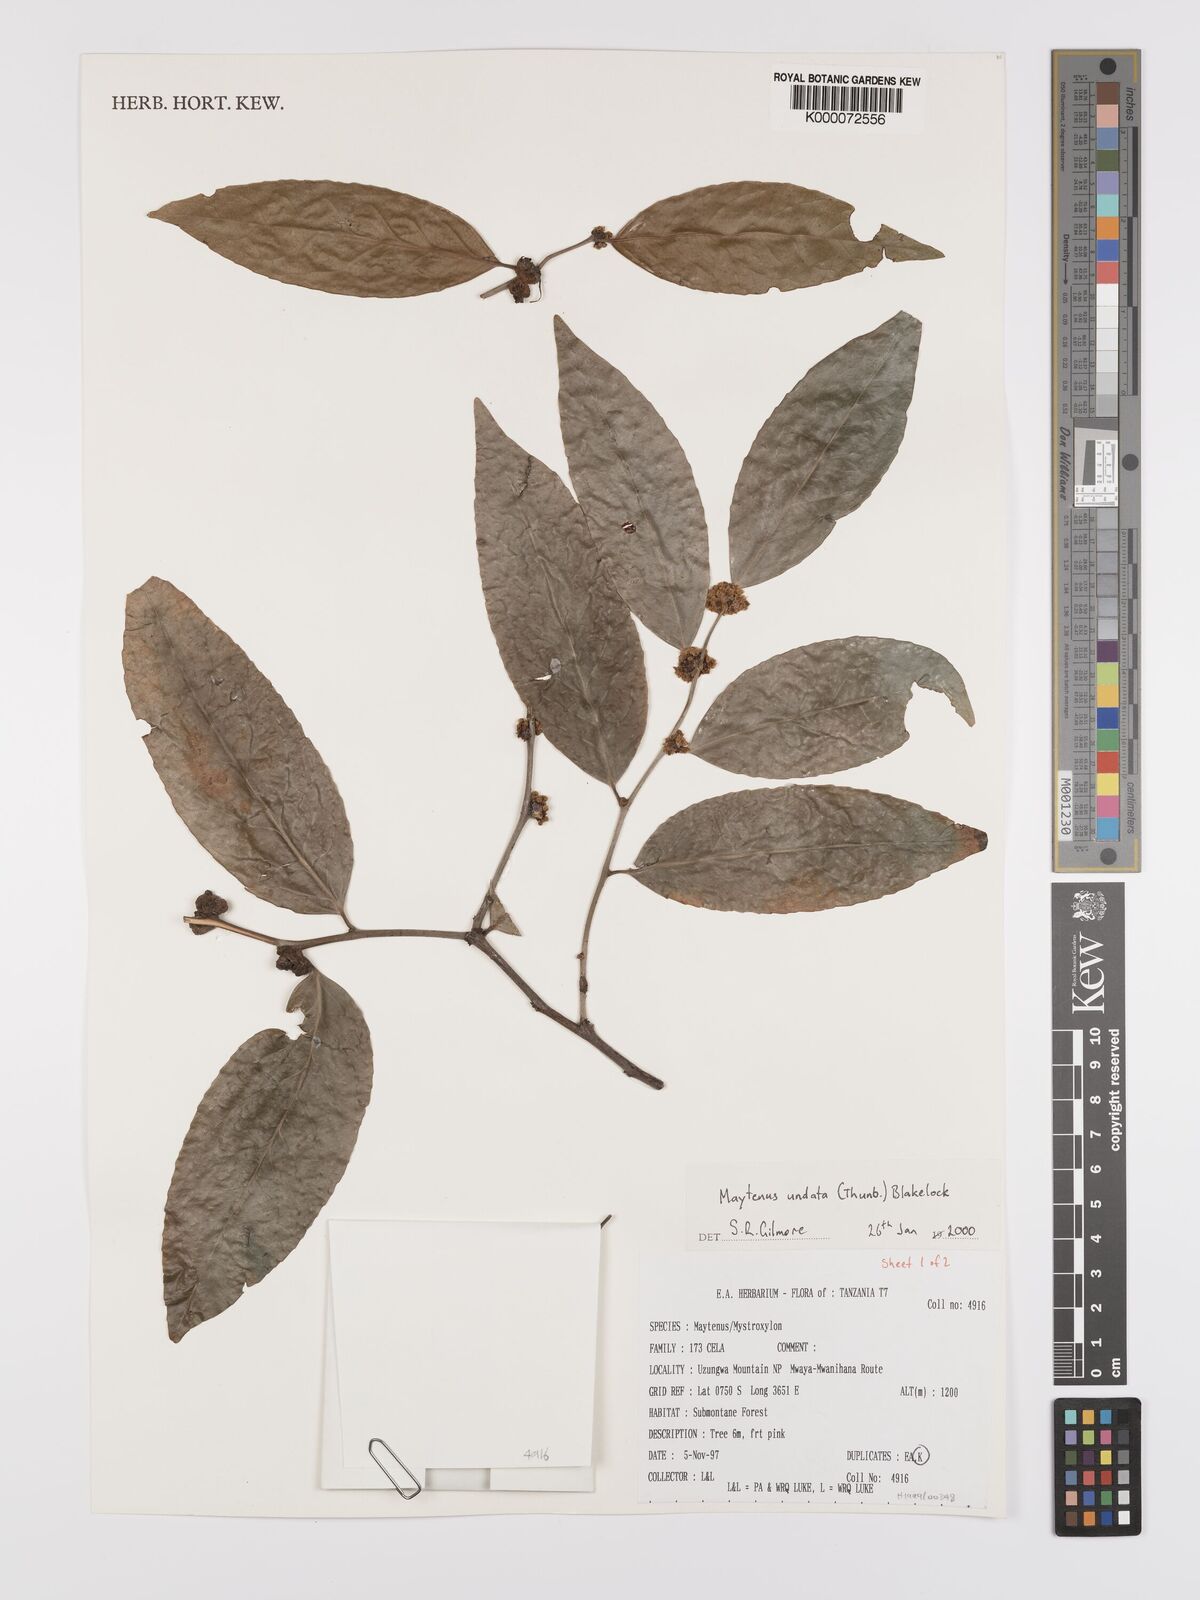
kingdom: Plantae
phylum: Tracheophyta
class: Magnoliopsida
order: Celastrales
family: Celastraceae
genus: Gymnosporia
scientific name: Gymnosporia undata
